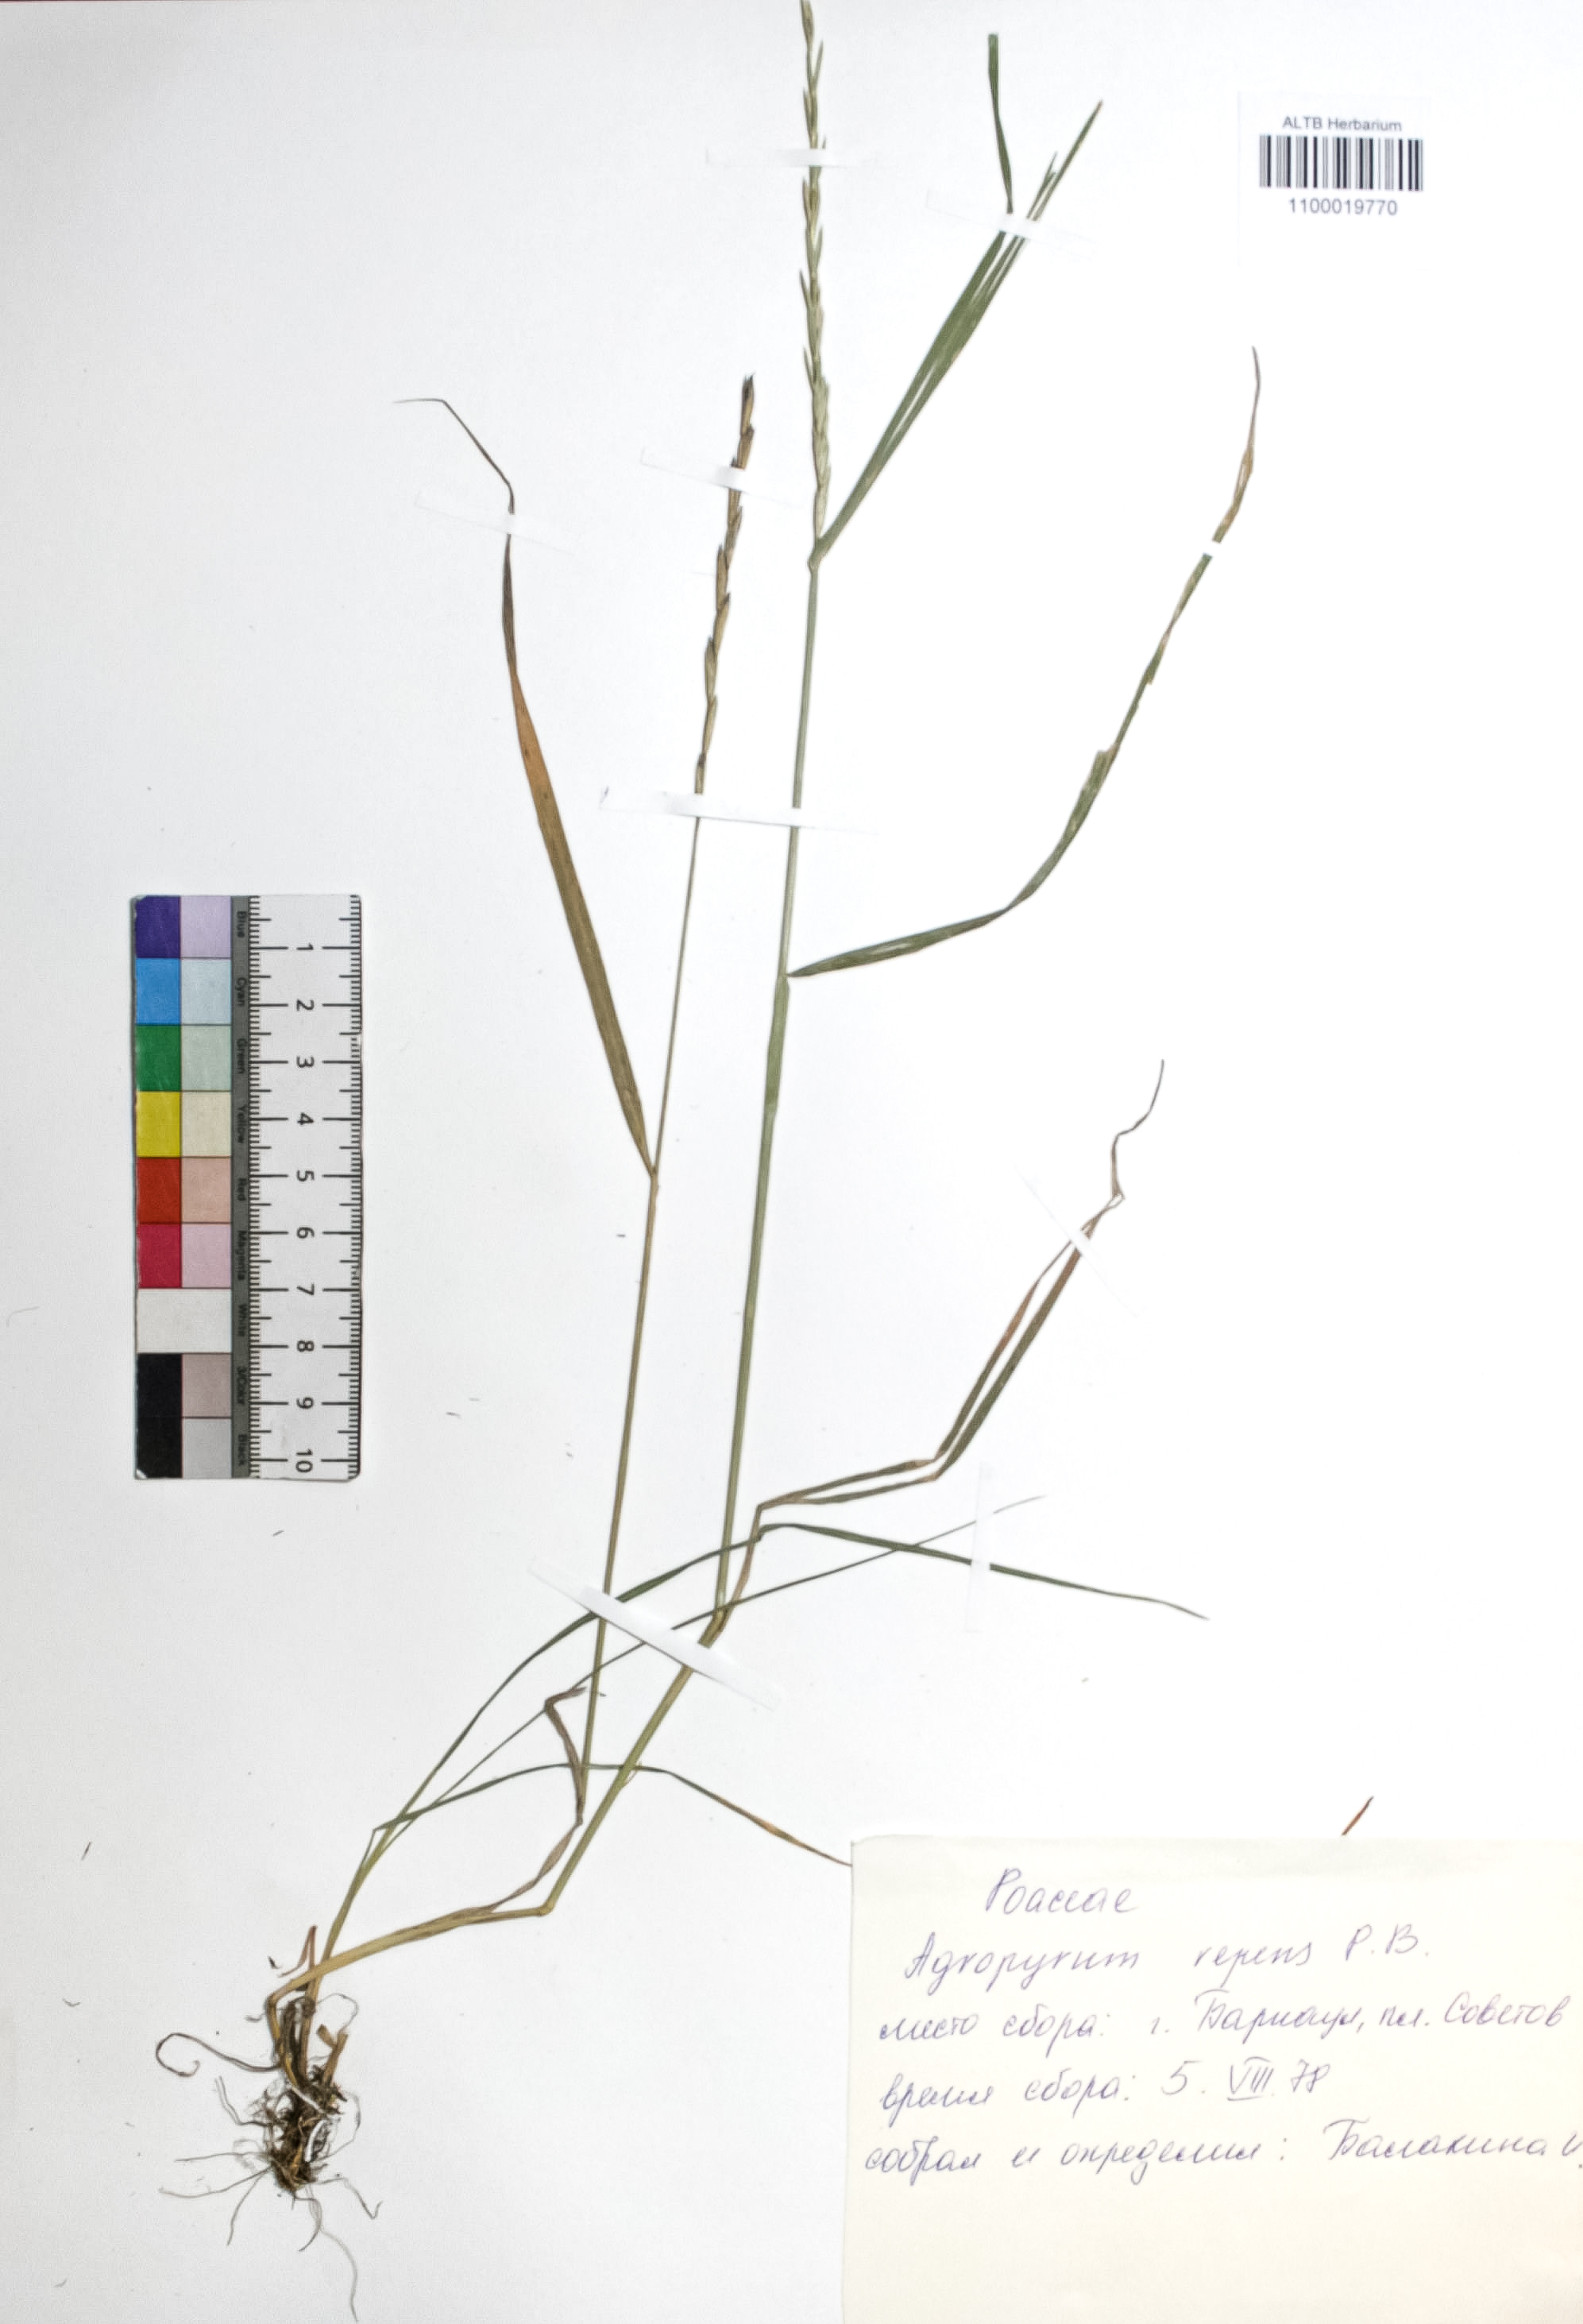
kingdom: Plantae
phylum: Tracheophyta
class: Liliopsida
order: Poales
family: Poaceae
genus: Elymus
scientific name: Elymus repens
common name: Quackgrass
